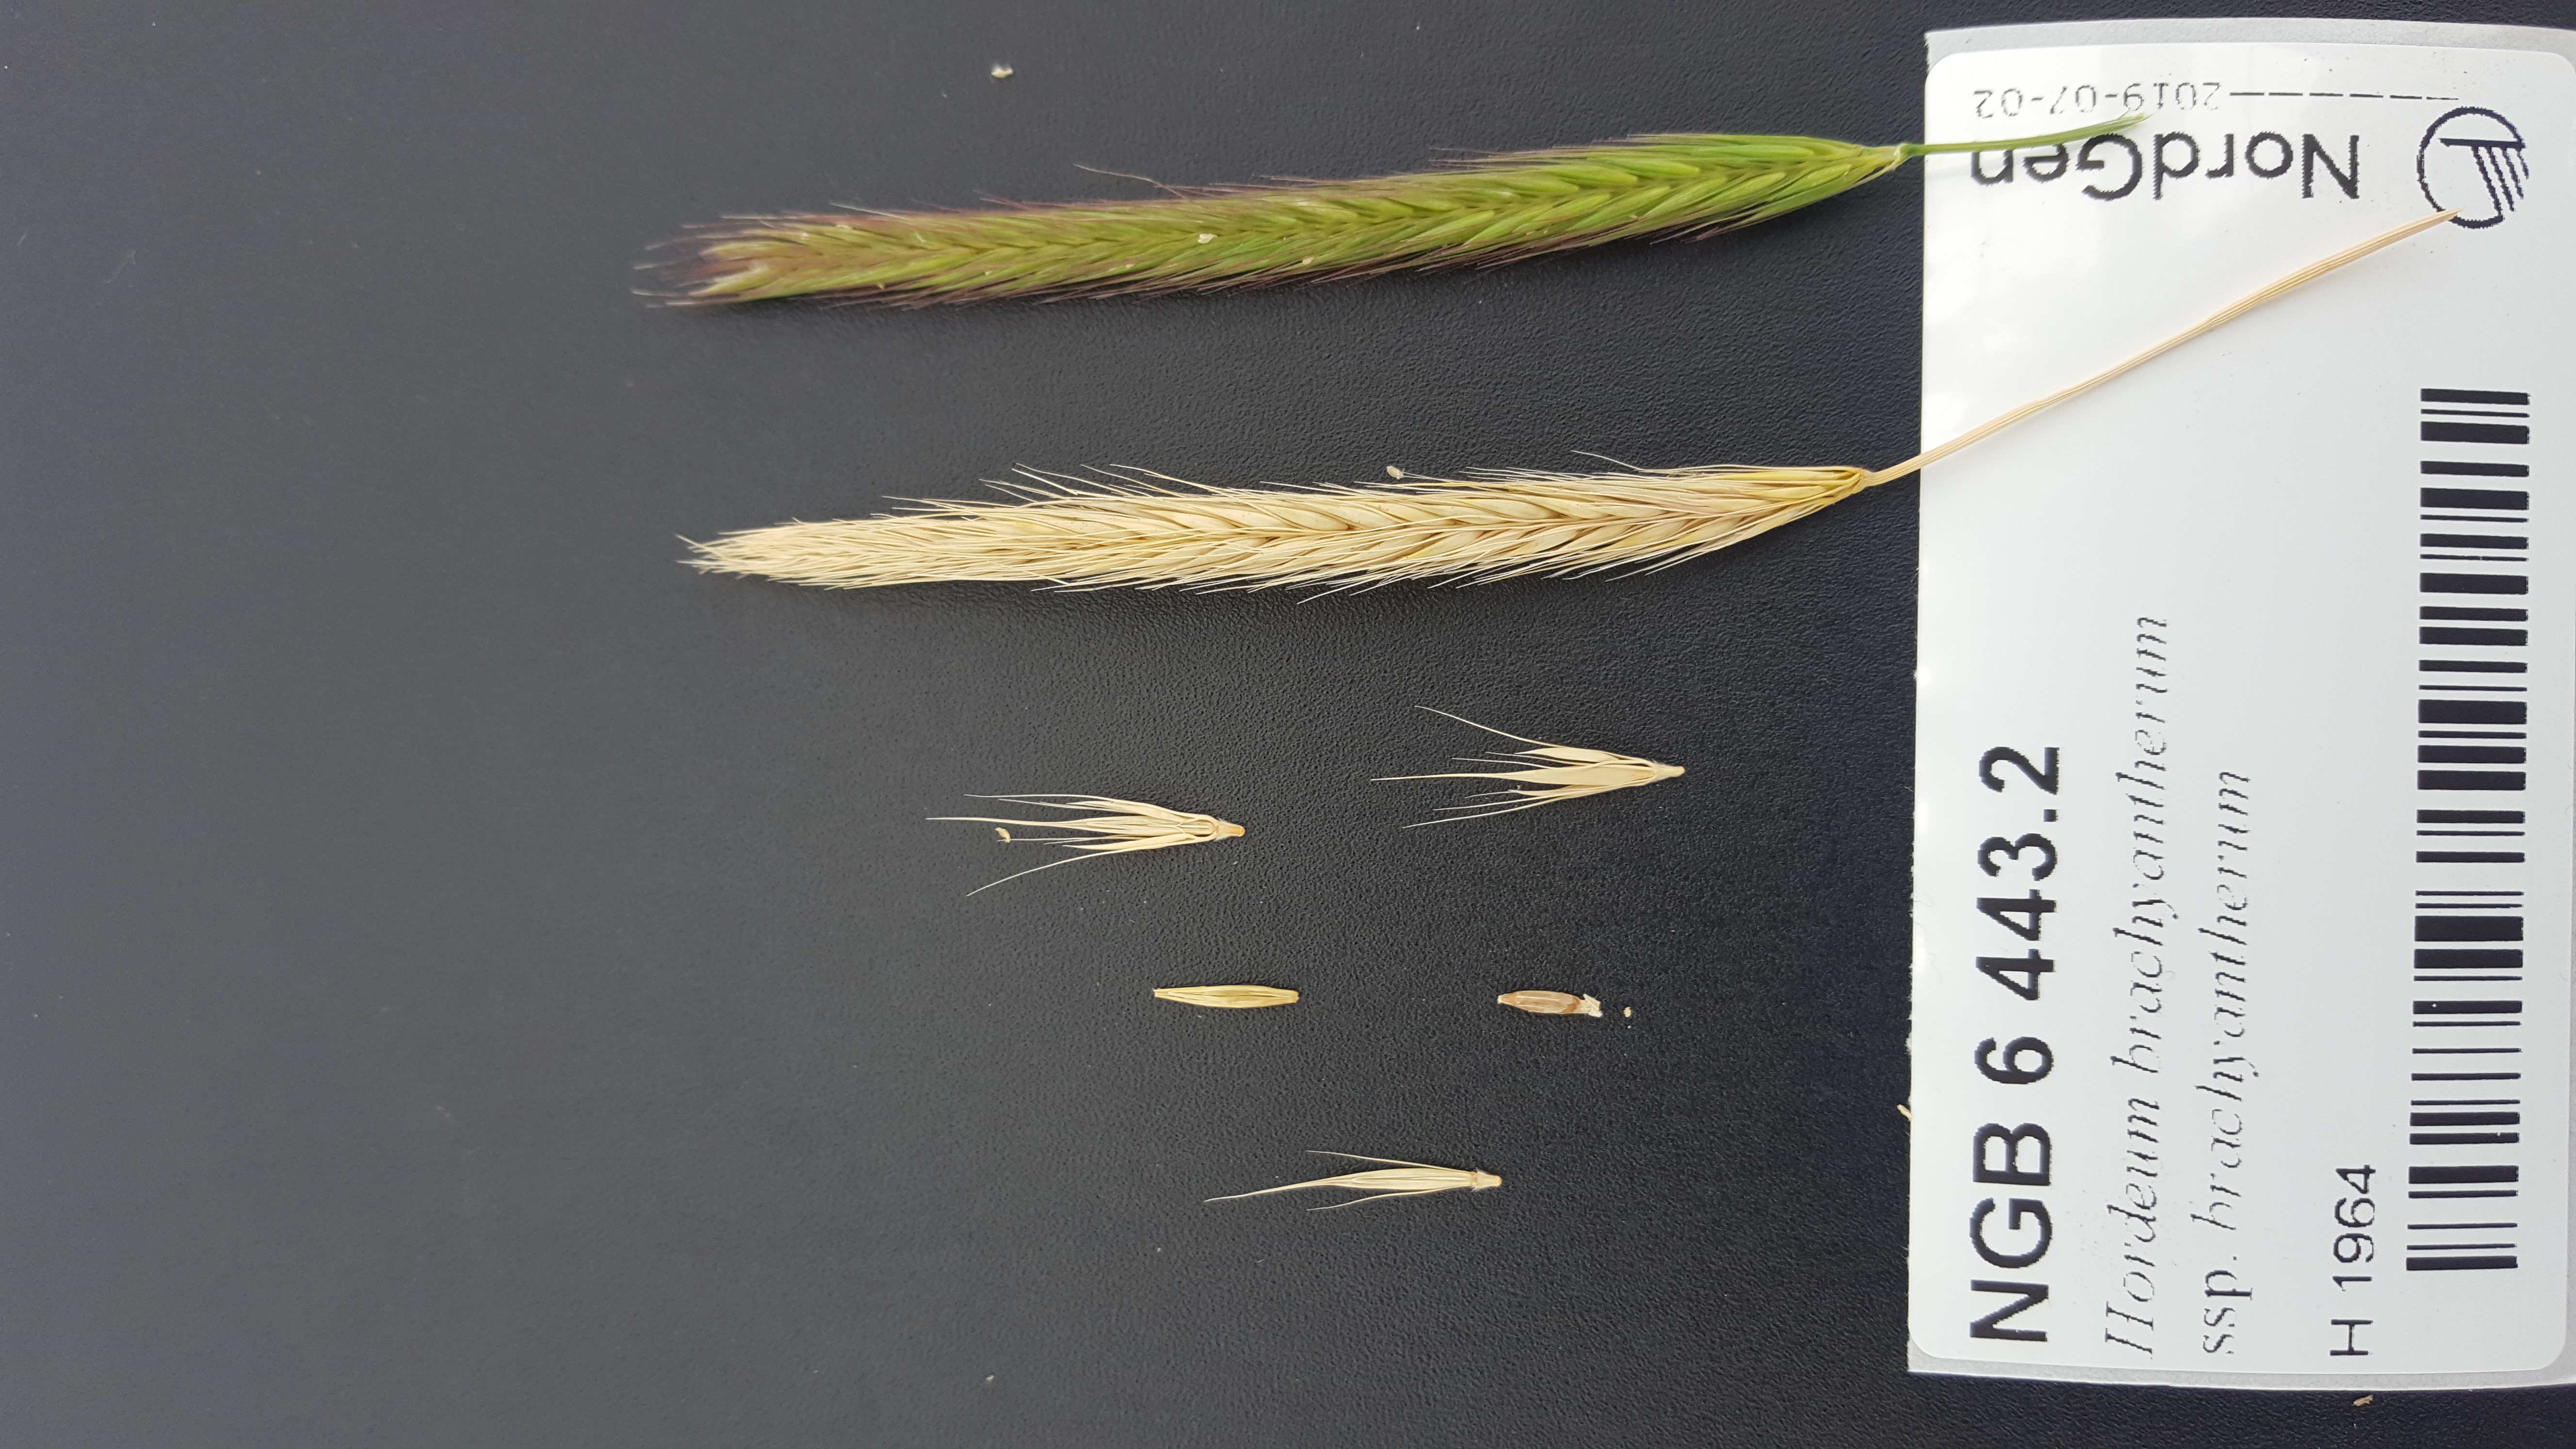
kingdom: Plantae
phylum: Tracheophyta
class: Liliopsida
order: Poales
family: Poaceae
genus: Hordeum
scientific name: Hordeum brachyantherum
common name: Meadow barley
